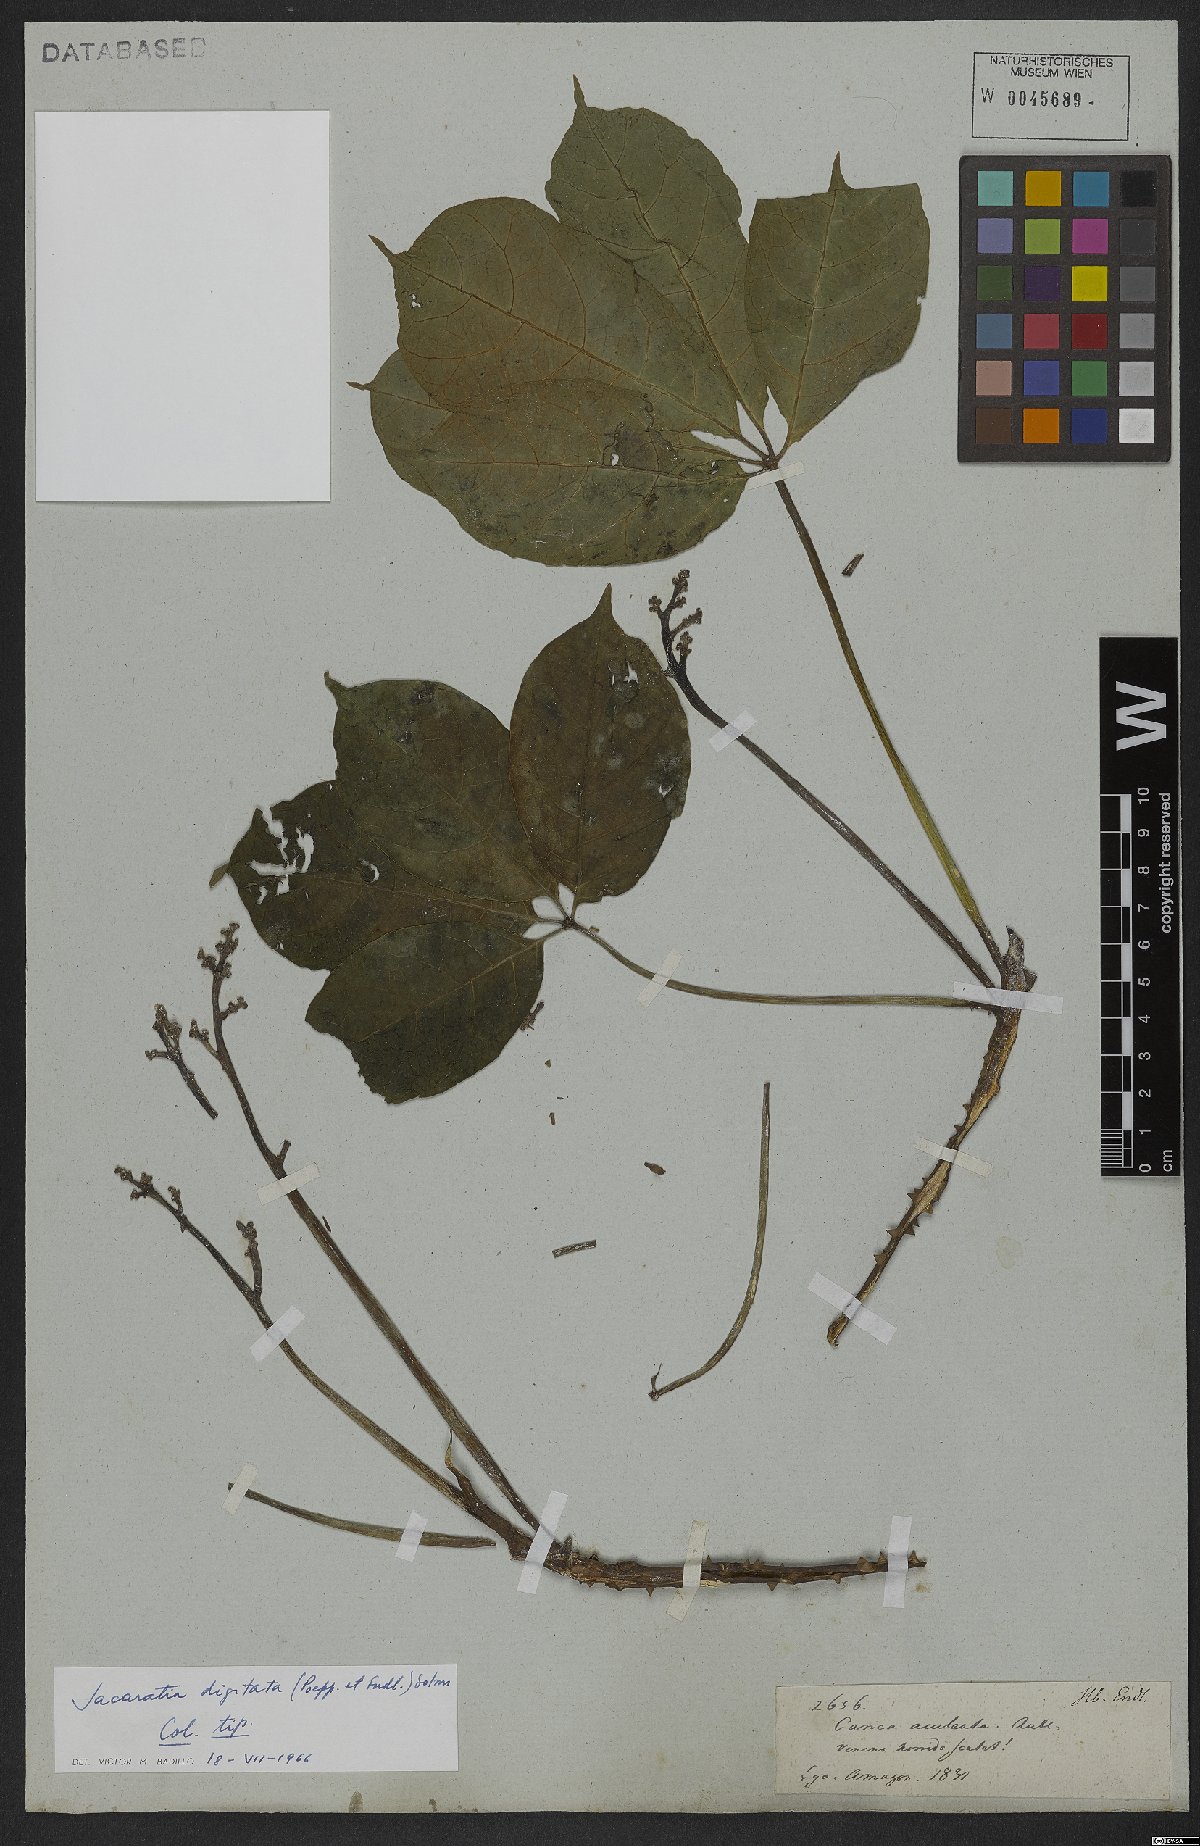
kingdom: Plantae
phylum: Tracheophyta
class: Magnoliopsida
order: Brassicales
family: Caricaceae
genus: Jacaratia
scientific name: Jacaratia digitata
